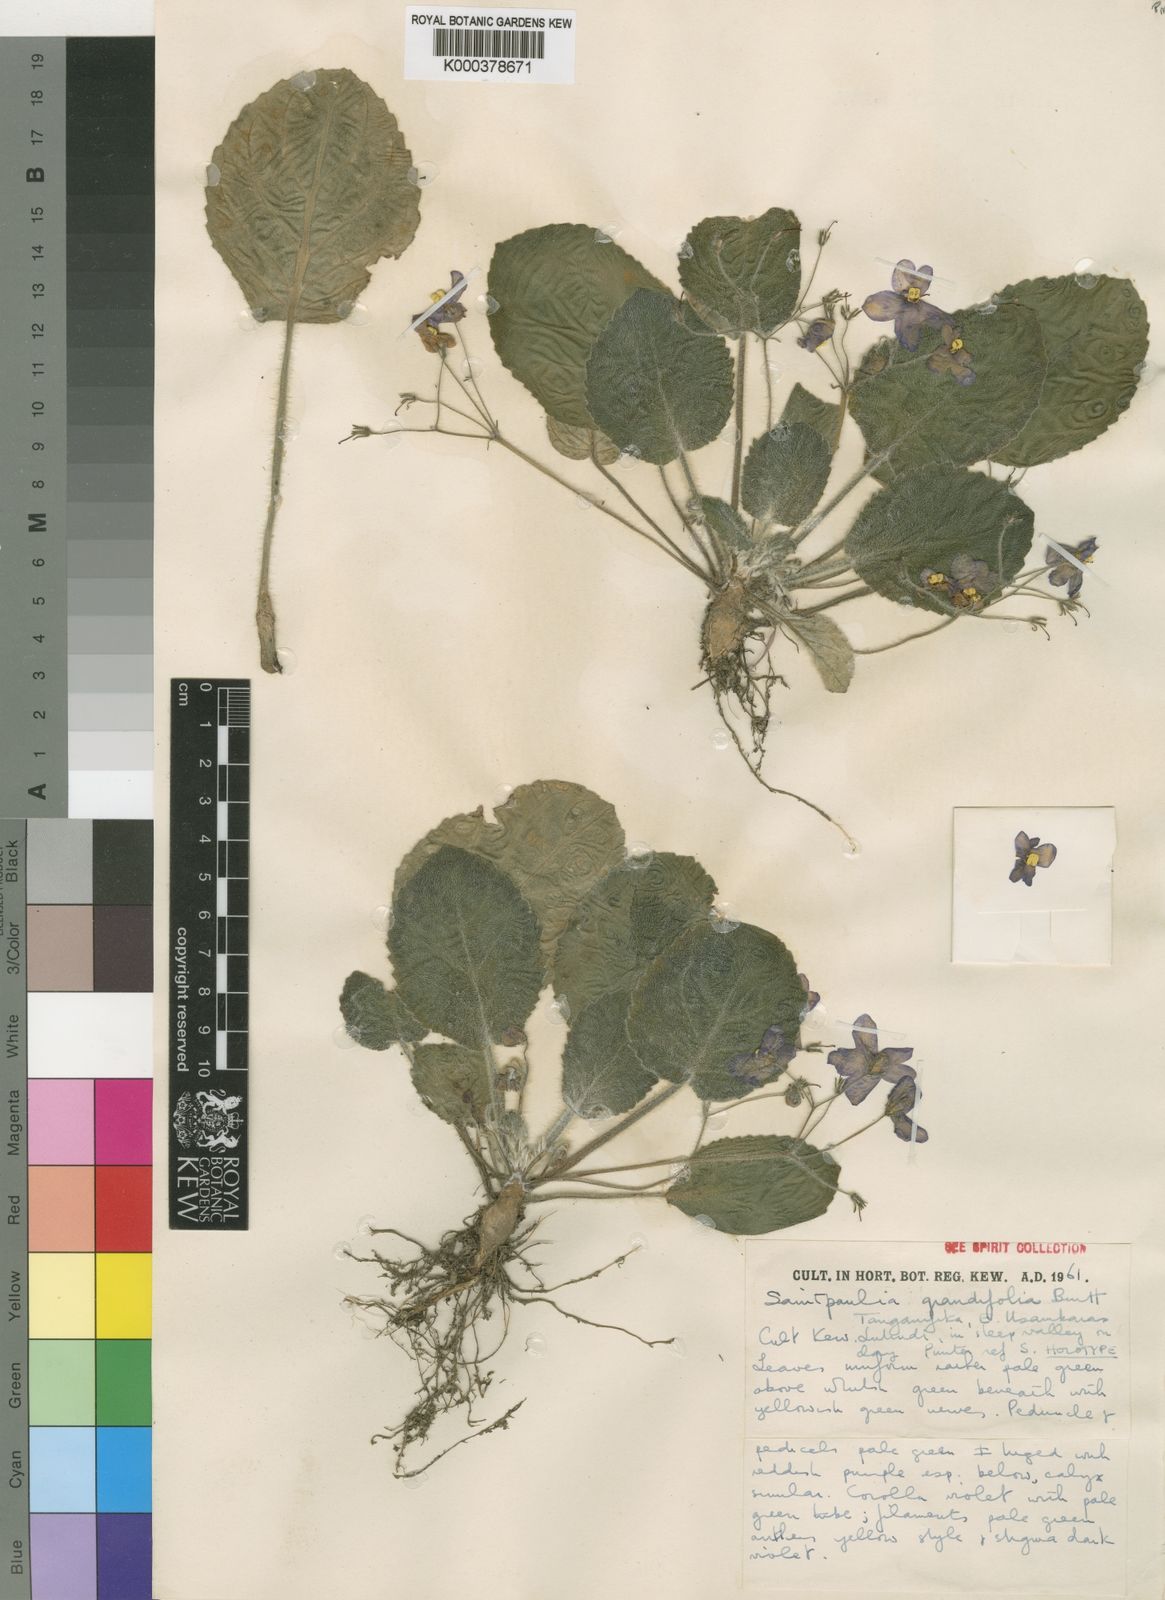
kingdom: Plantae
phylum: Tracheophyta
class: Magnoliopsida
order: Lamiales
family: Gesneriaceae
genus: Streptocarpus
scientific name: Streptocarpus ionanthus
